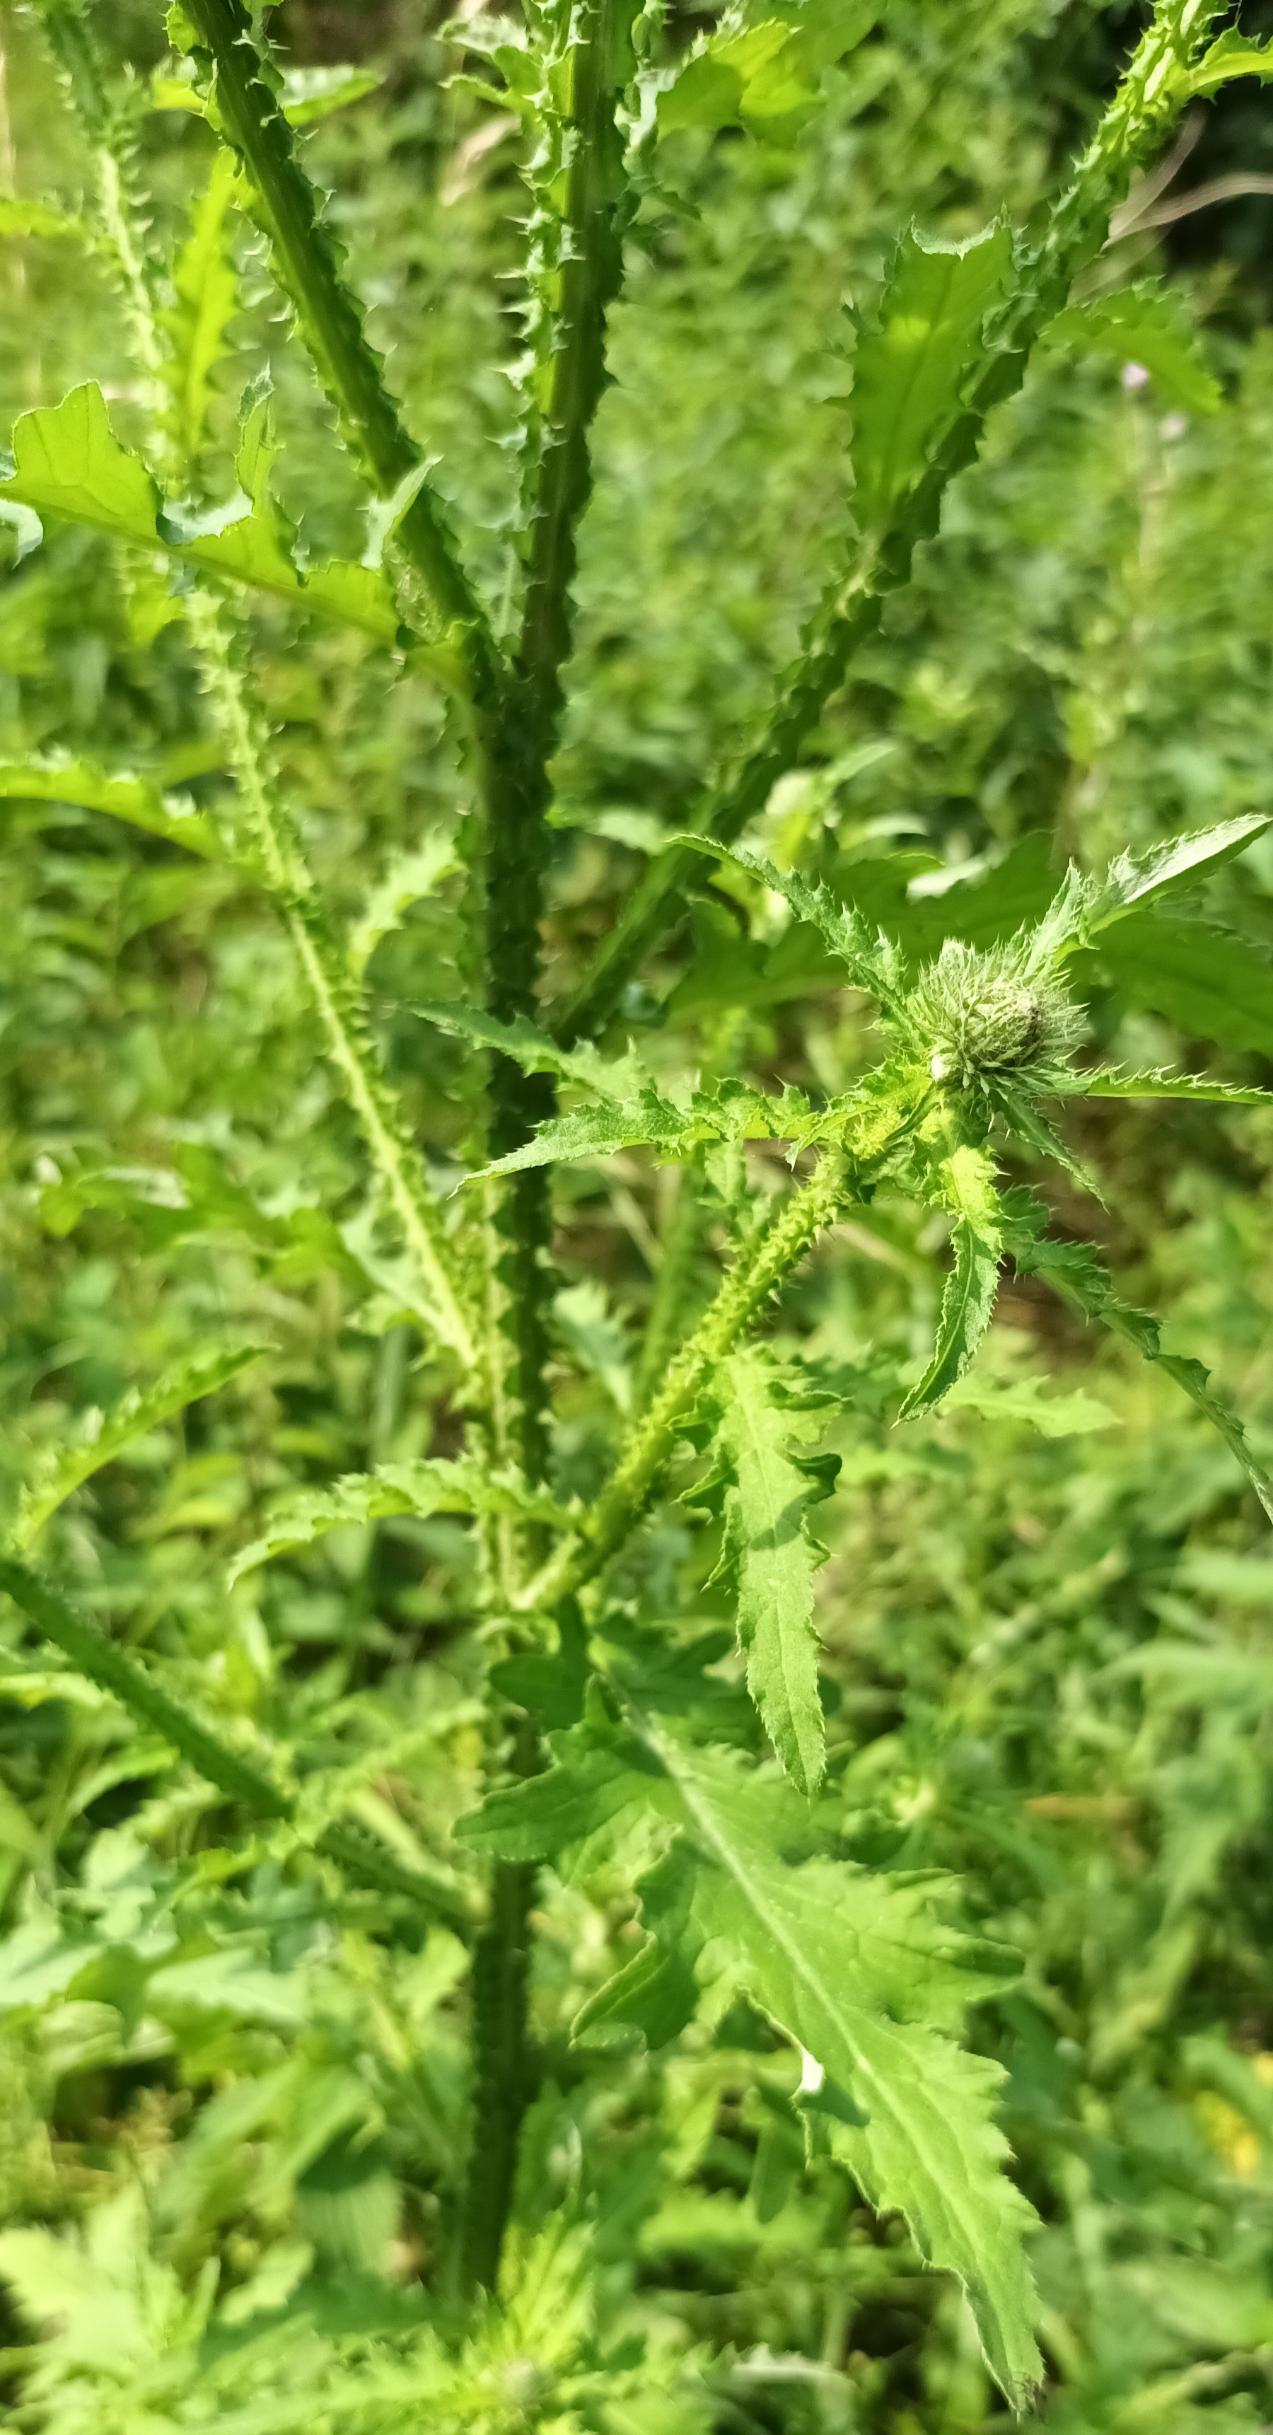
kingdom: Plantae
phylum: Tracheophyta
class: Magnoliopsida
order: Asterales
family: Asteraceae
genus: Carduus
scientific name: Carduus crispus
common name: Kruset tidsel
